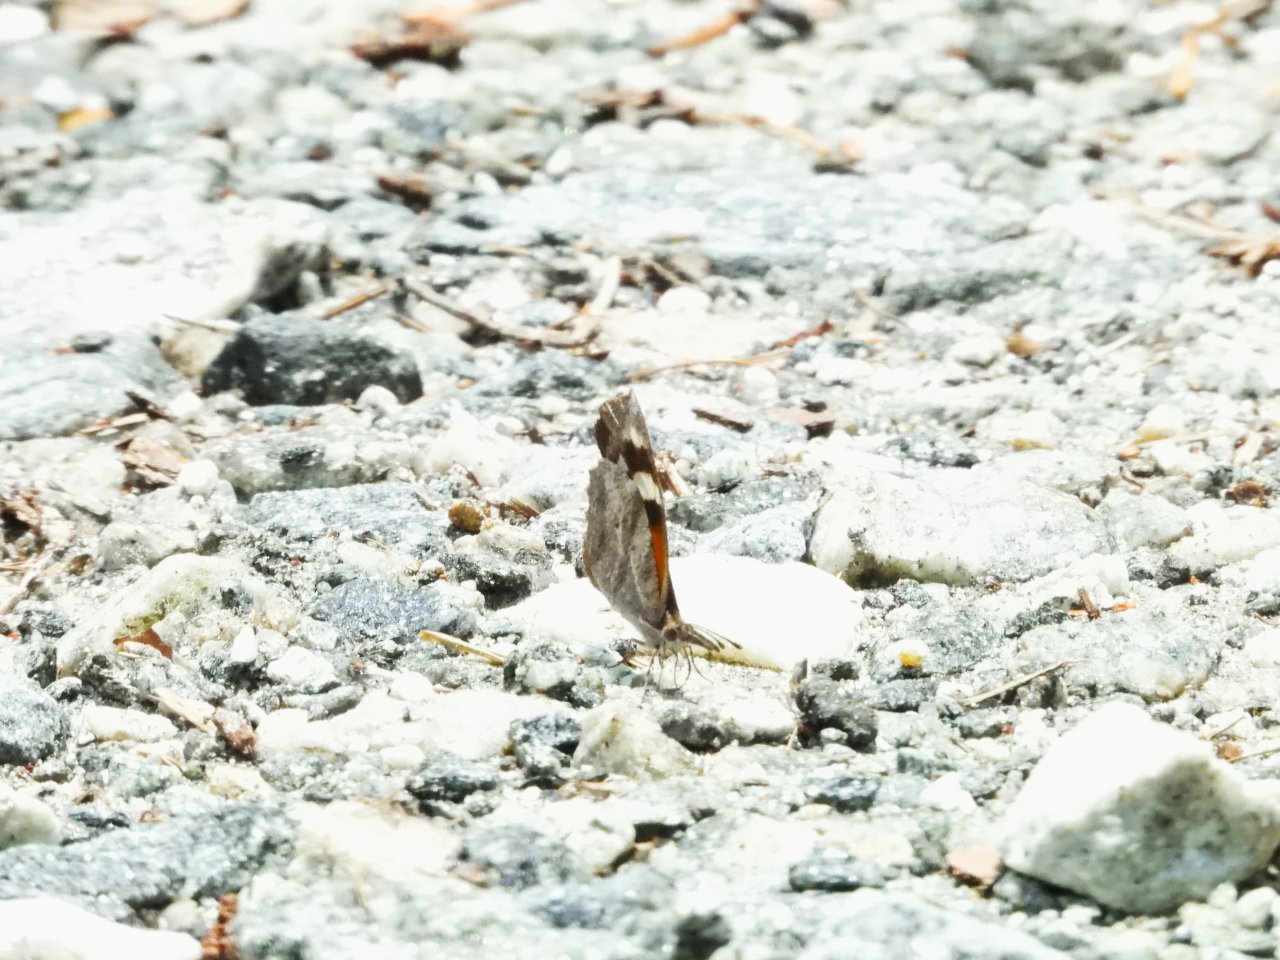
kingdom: Animalia
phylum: Arthropoda
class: Insecta
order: Lepidoptera
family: Nymphalidae
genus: Libytheana
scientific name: Libytheana carinenta
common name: American Snout
